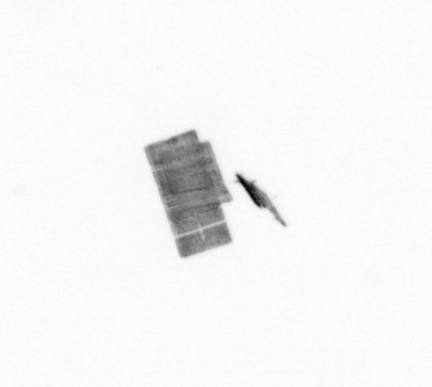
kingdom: Chromista
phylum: Ochrophyta
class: Bacillariophyceae
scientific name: Bacillariophyceae
